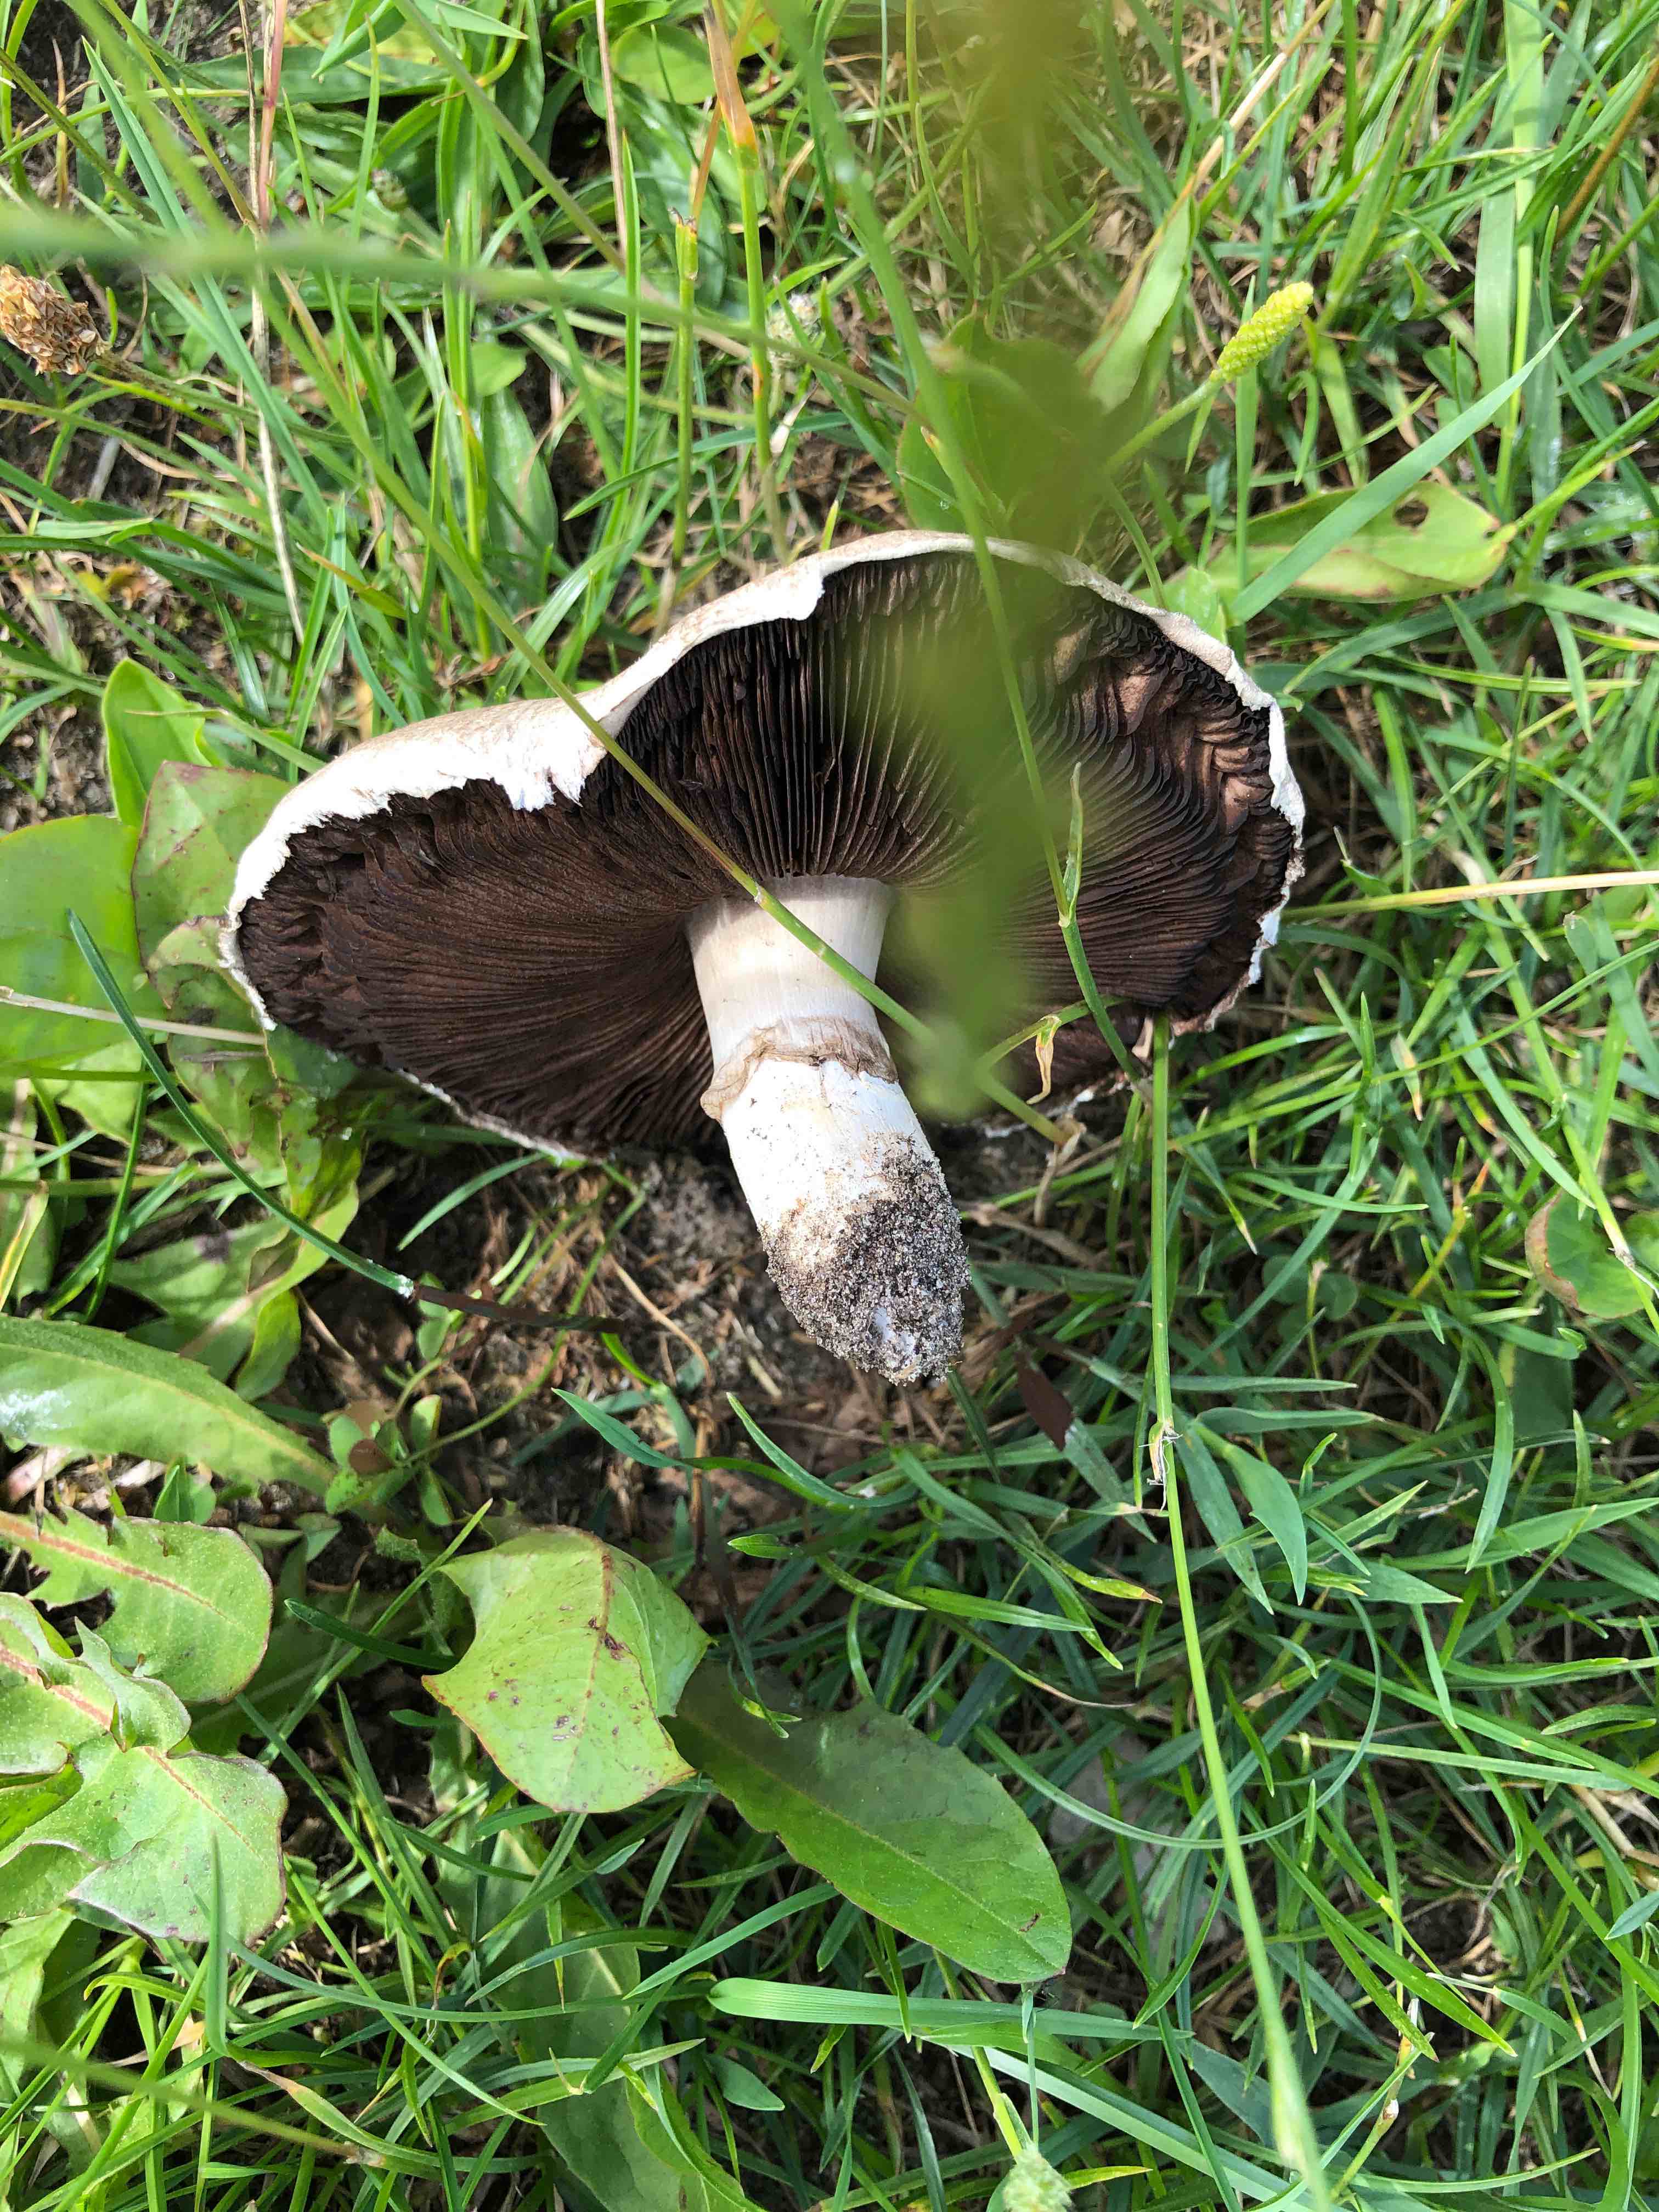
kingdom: Fungi
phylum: Basidiomycota
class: Agaricomycetes
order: Agaricales
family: Agaricaceae
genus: Agaricus
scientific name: Agaricus
